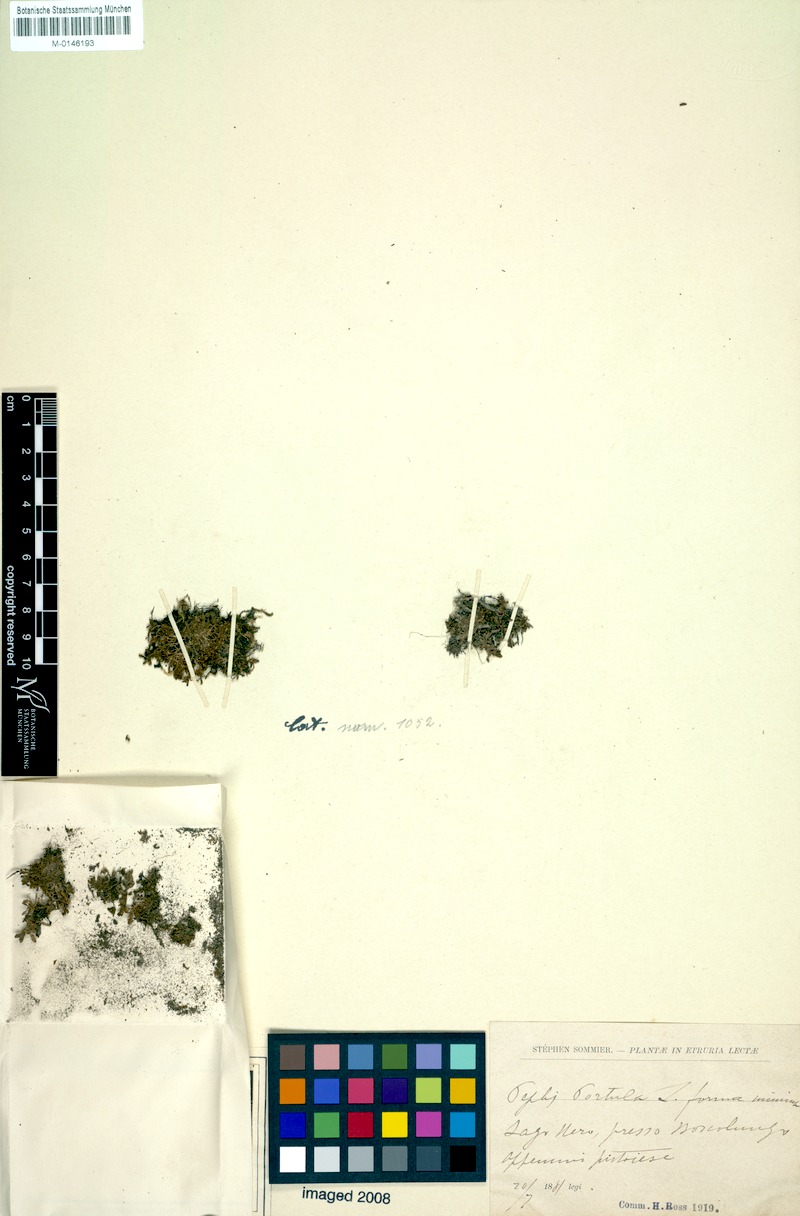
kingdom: Plantae
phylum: Tracheophyta
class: Magnoliopsida
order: Myrtales
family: Lythraceae
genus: Lythrum
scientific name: Lythrum portula
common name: Water purslane
